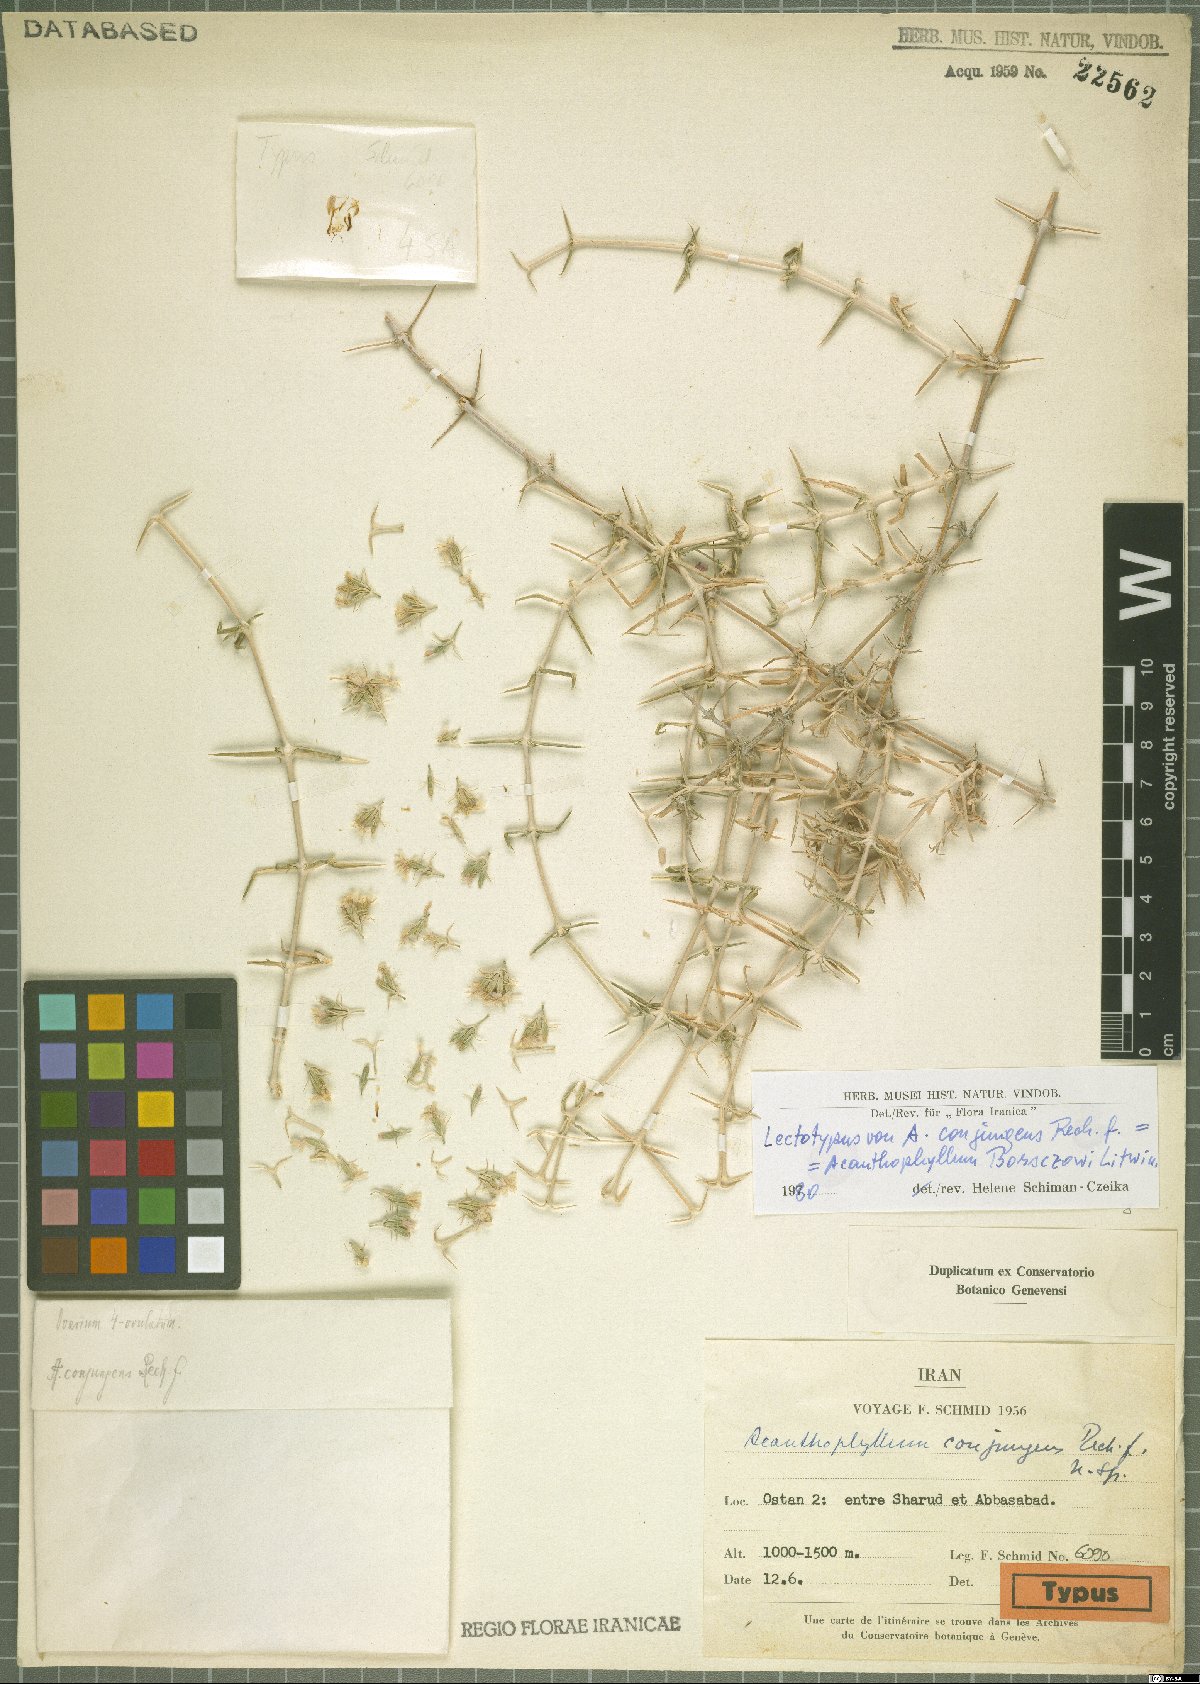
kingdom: Plantae
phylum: Tracheophyta
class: Magnoliopsida
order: Caryophyllales
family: Caryophyllaceae
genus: Acanthophyllum
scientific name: Acanthophyllum borsczowii
